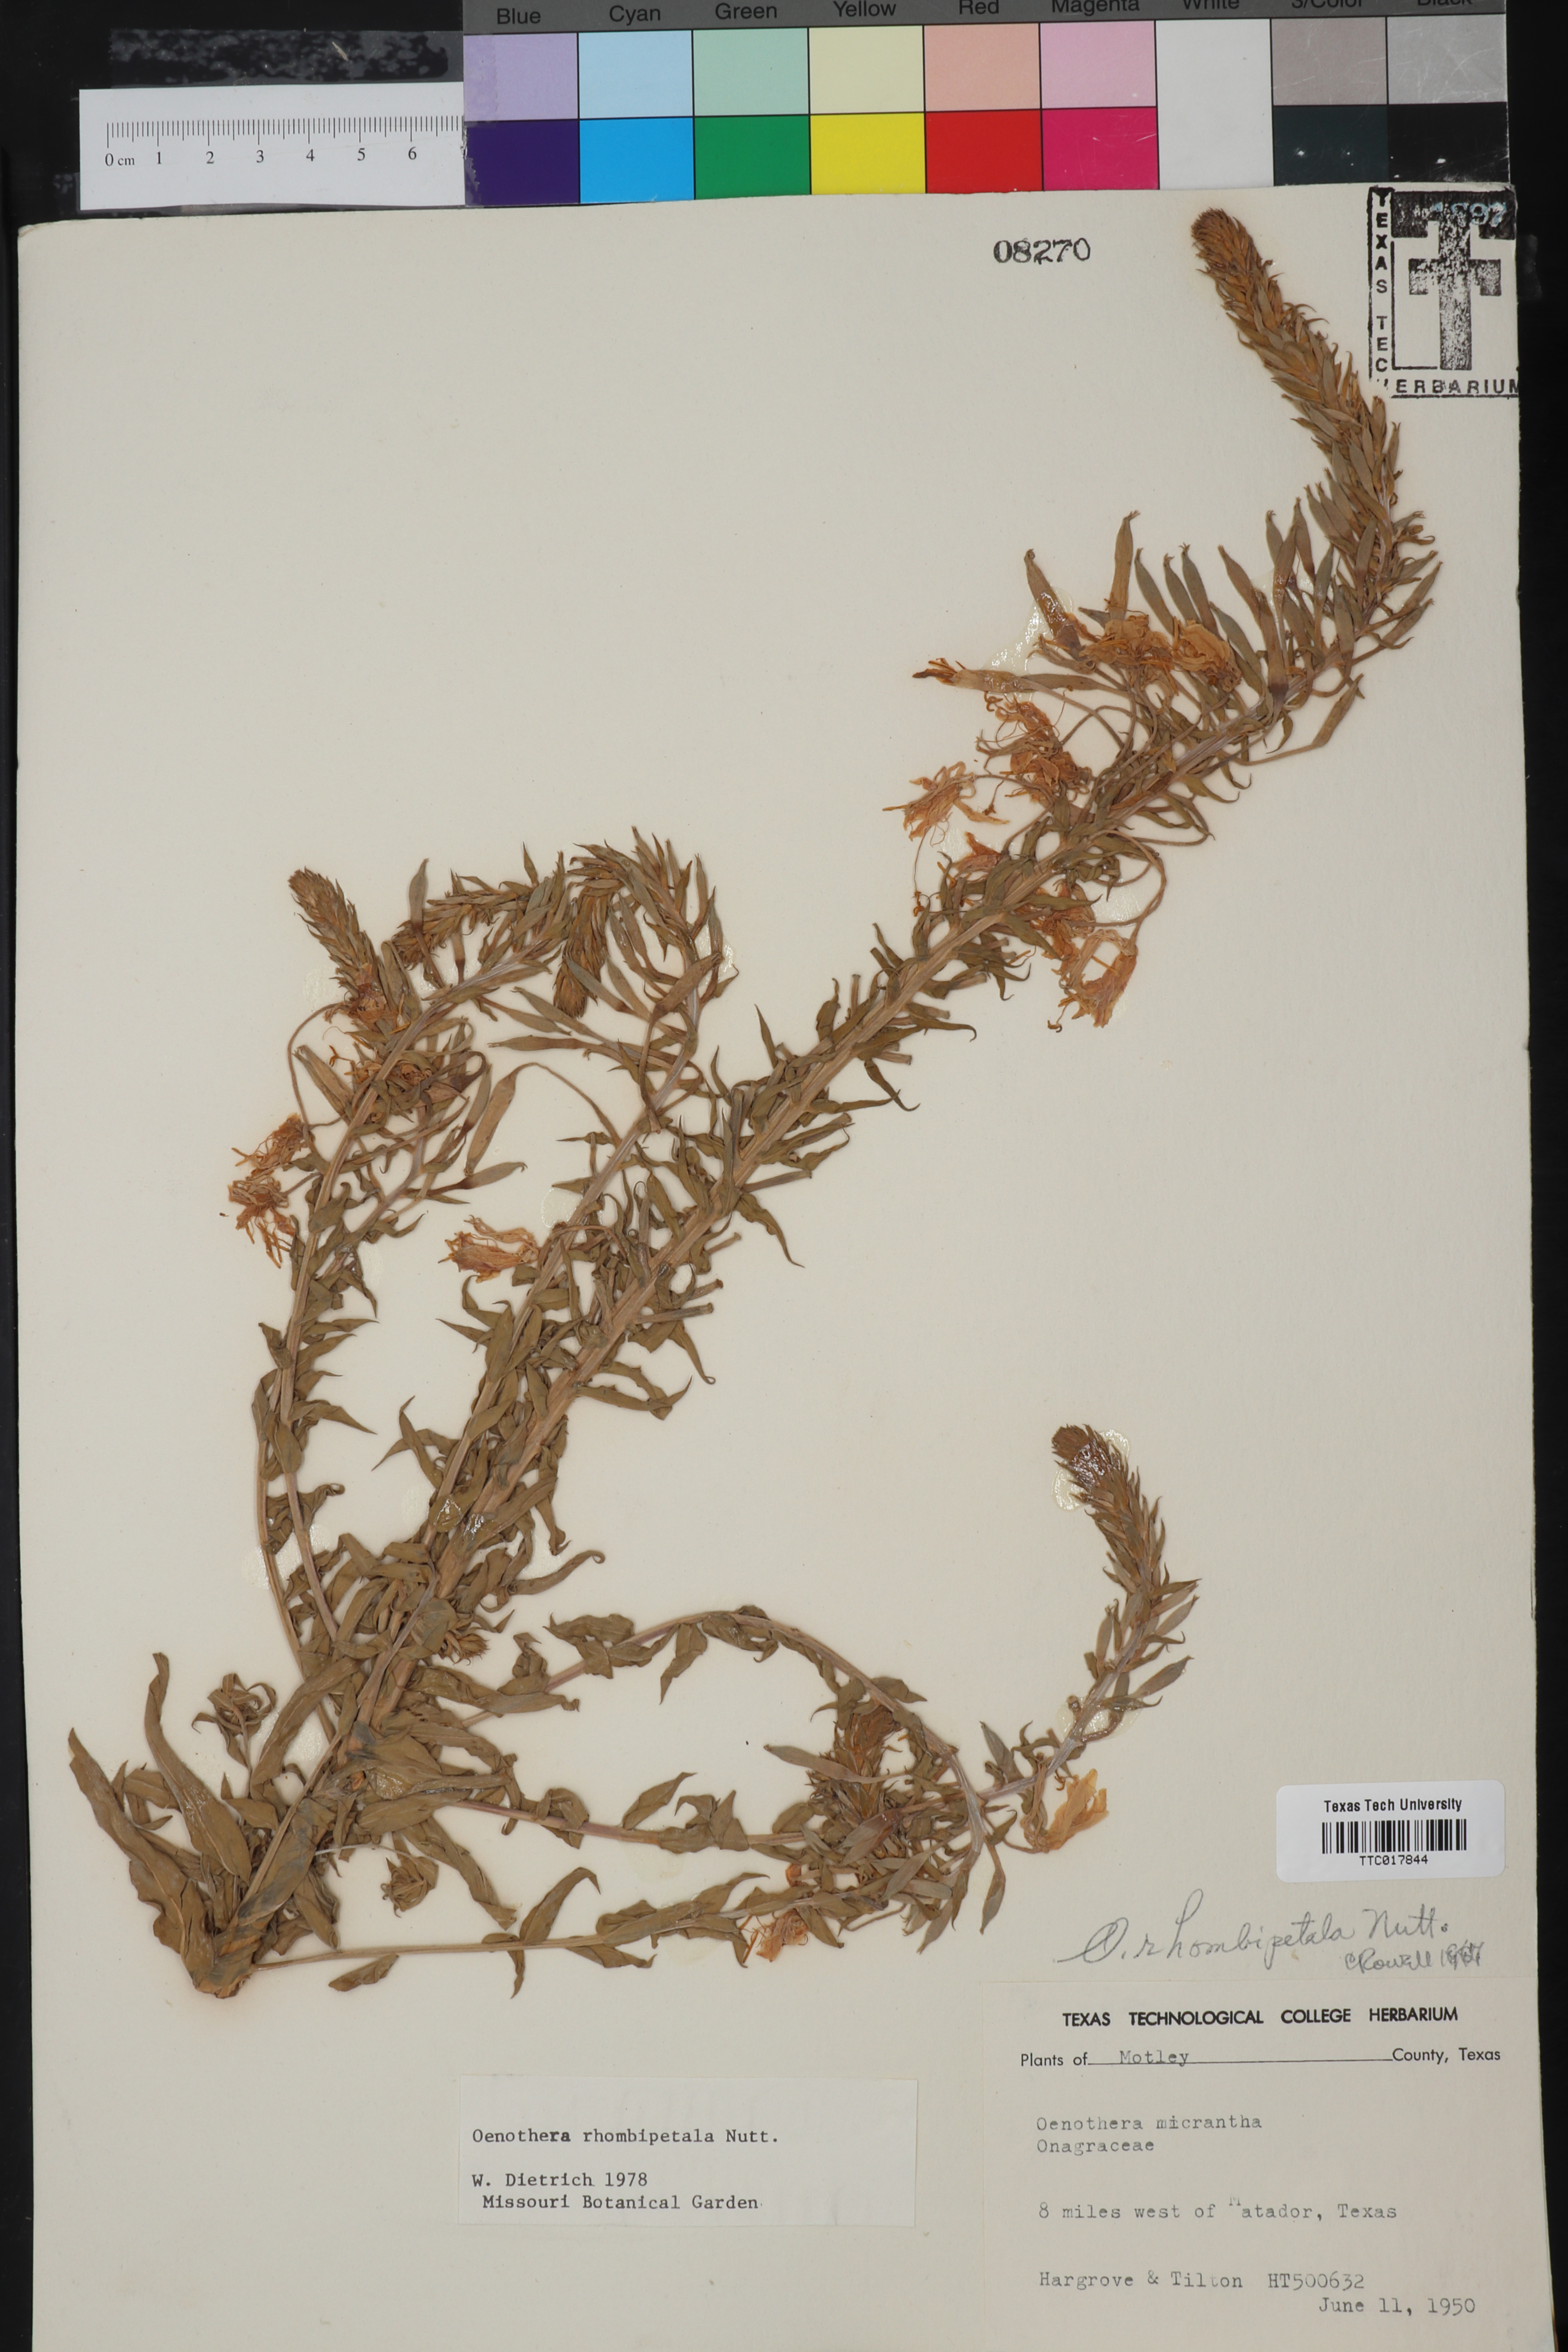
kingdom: Plantae
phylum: Tracheophyta
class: Magnoliopsida
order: Myrtales
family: Onagraceae
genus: Oenothera
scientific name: Oenothera rhombipetala
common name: Four-points evening-primrose
